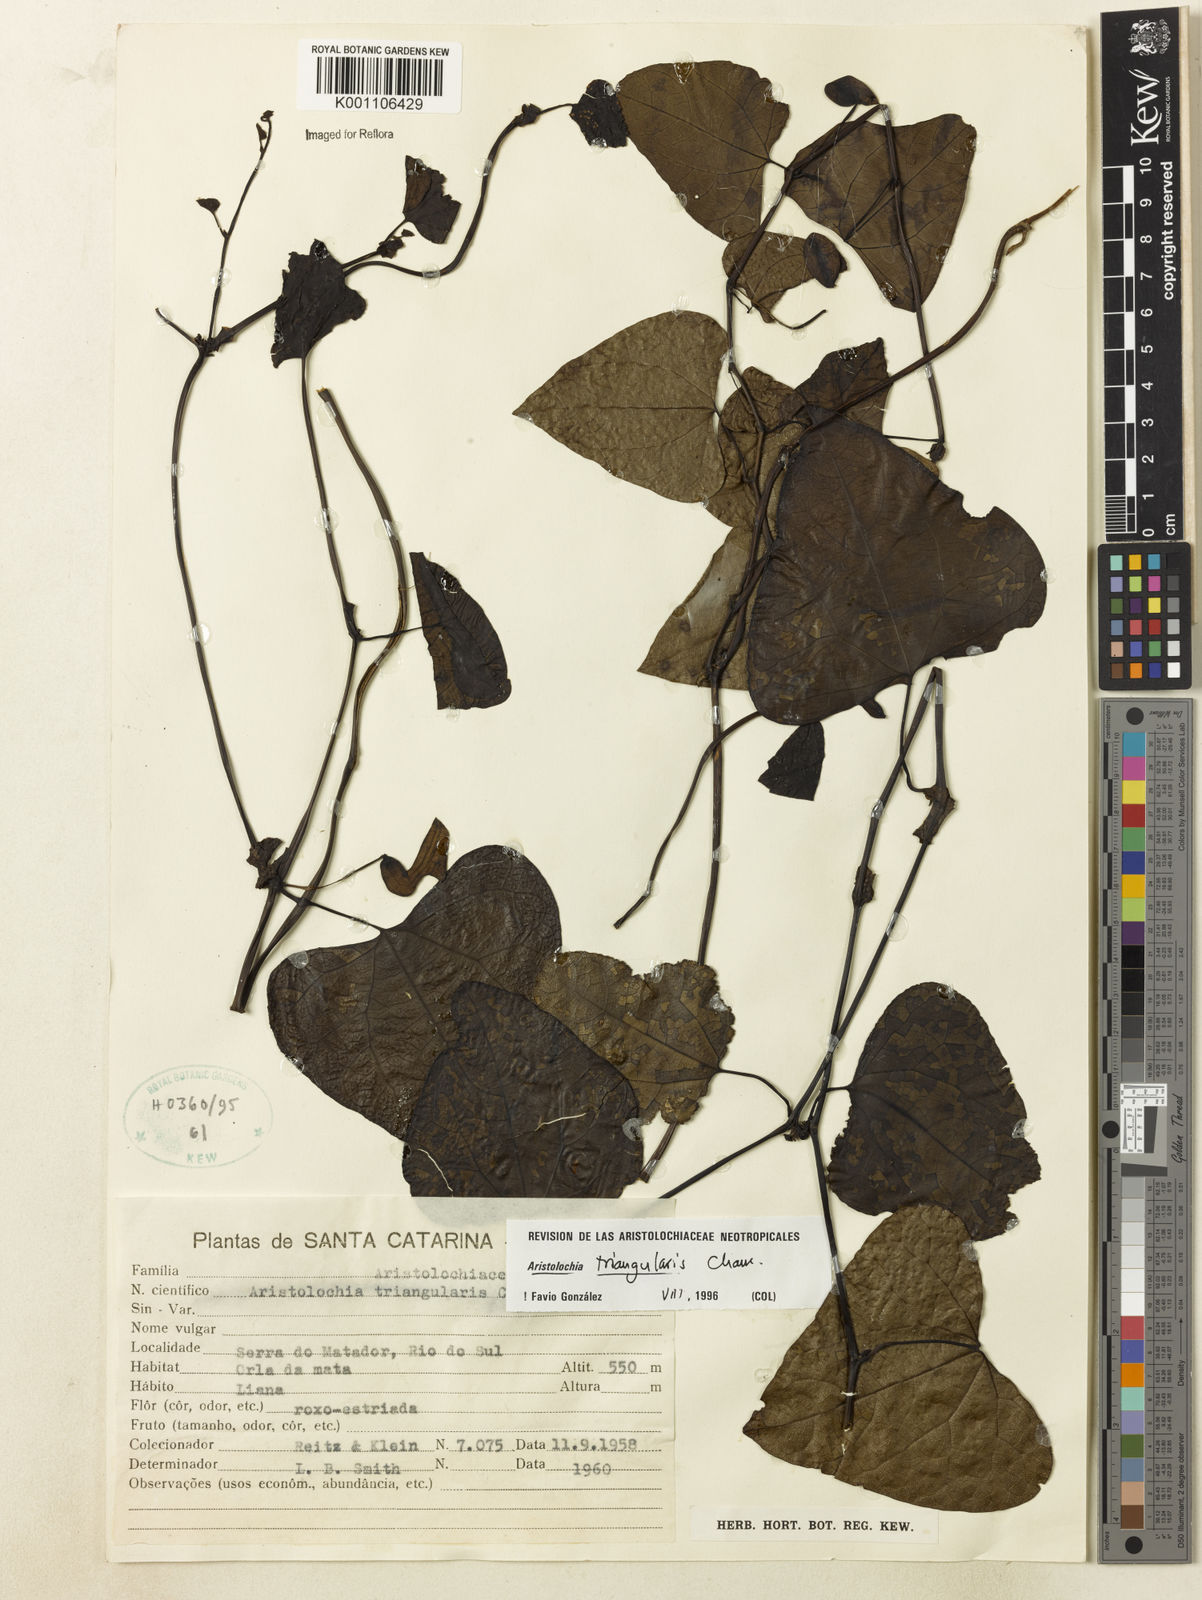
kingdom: Plantae
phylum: Tracheophyta
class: Magnoliopsida
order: Piperales
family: Aristolochiaceae
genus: Aristolochia
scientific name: Aristolochia triangularis
